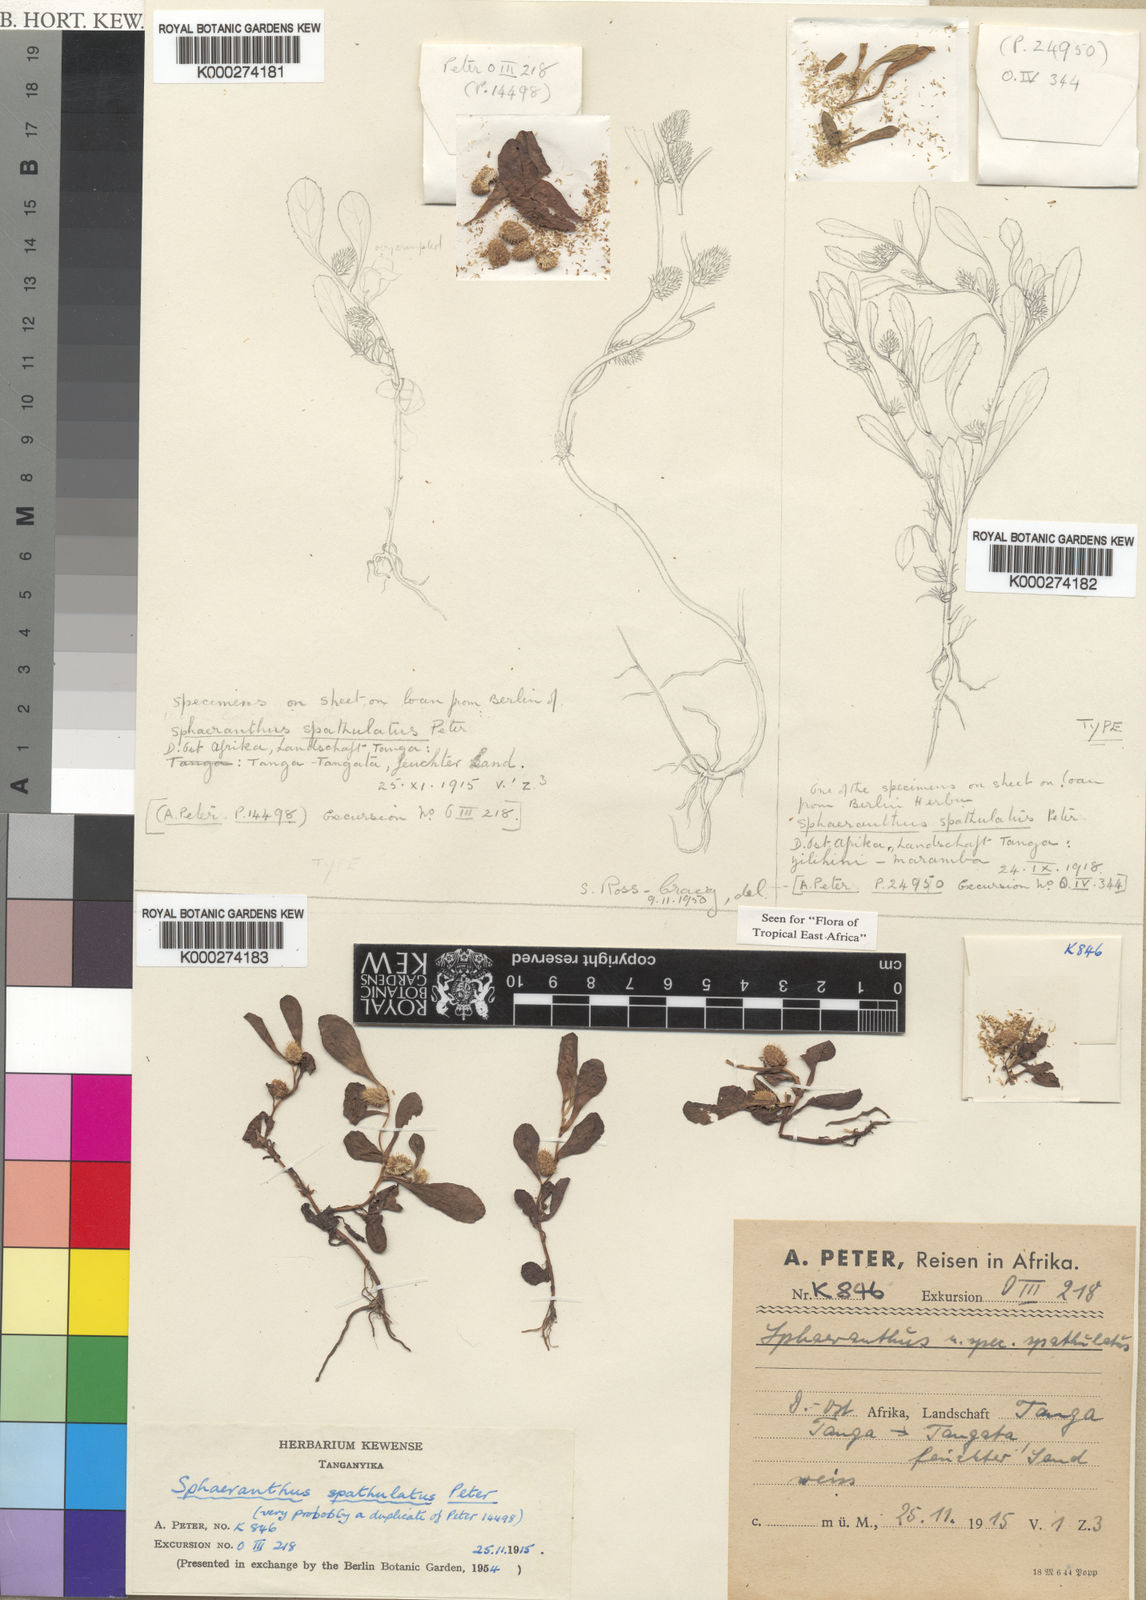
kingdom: Plantae
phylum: Tracheophyta
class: Magnoliopsida
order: Asterales
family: Asteraceae
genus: Sphaeranthus
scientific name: Sphaeranthus spathulatus
